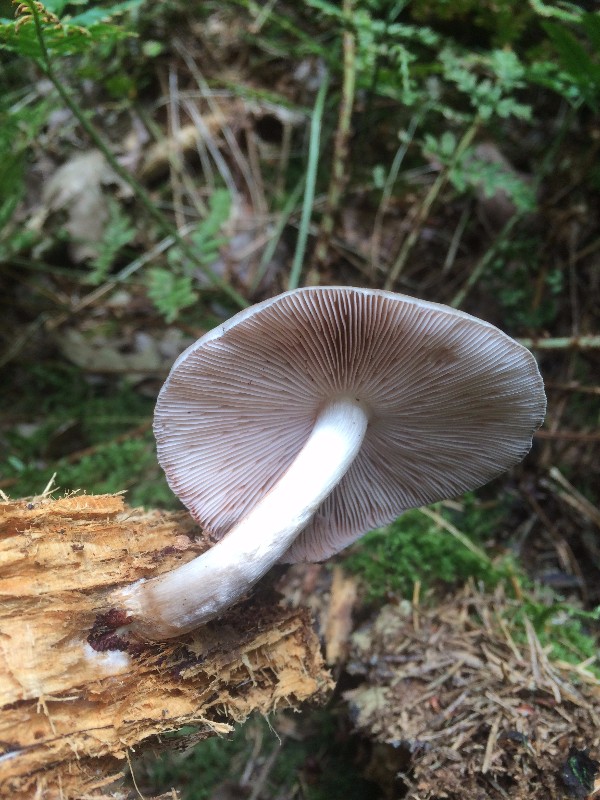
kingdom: Fungi
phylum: Basidiomycota
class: Agaricomycetes
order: Agaricales
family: Pluteaceae
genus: Pluteus
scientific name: Pluteus pouzarianus
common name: plantage-skærmhat
